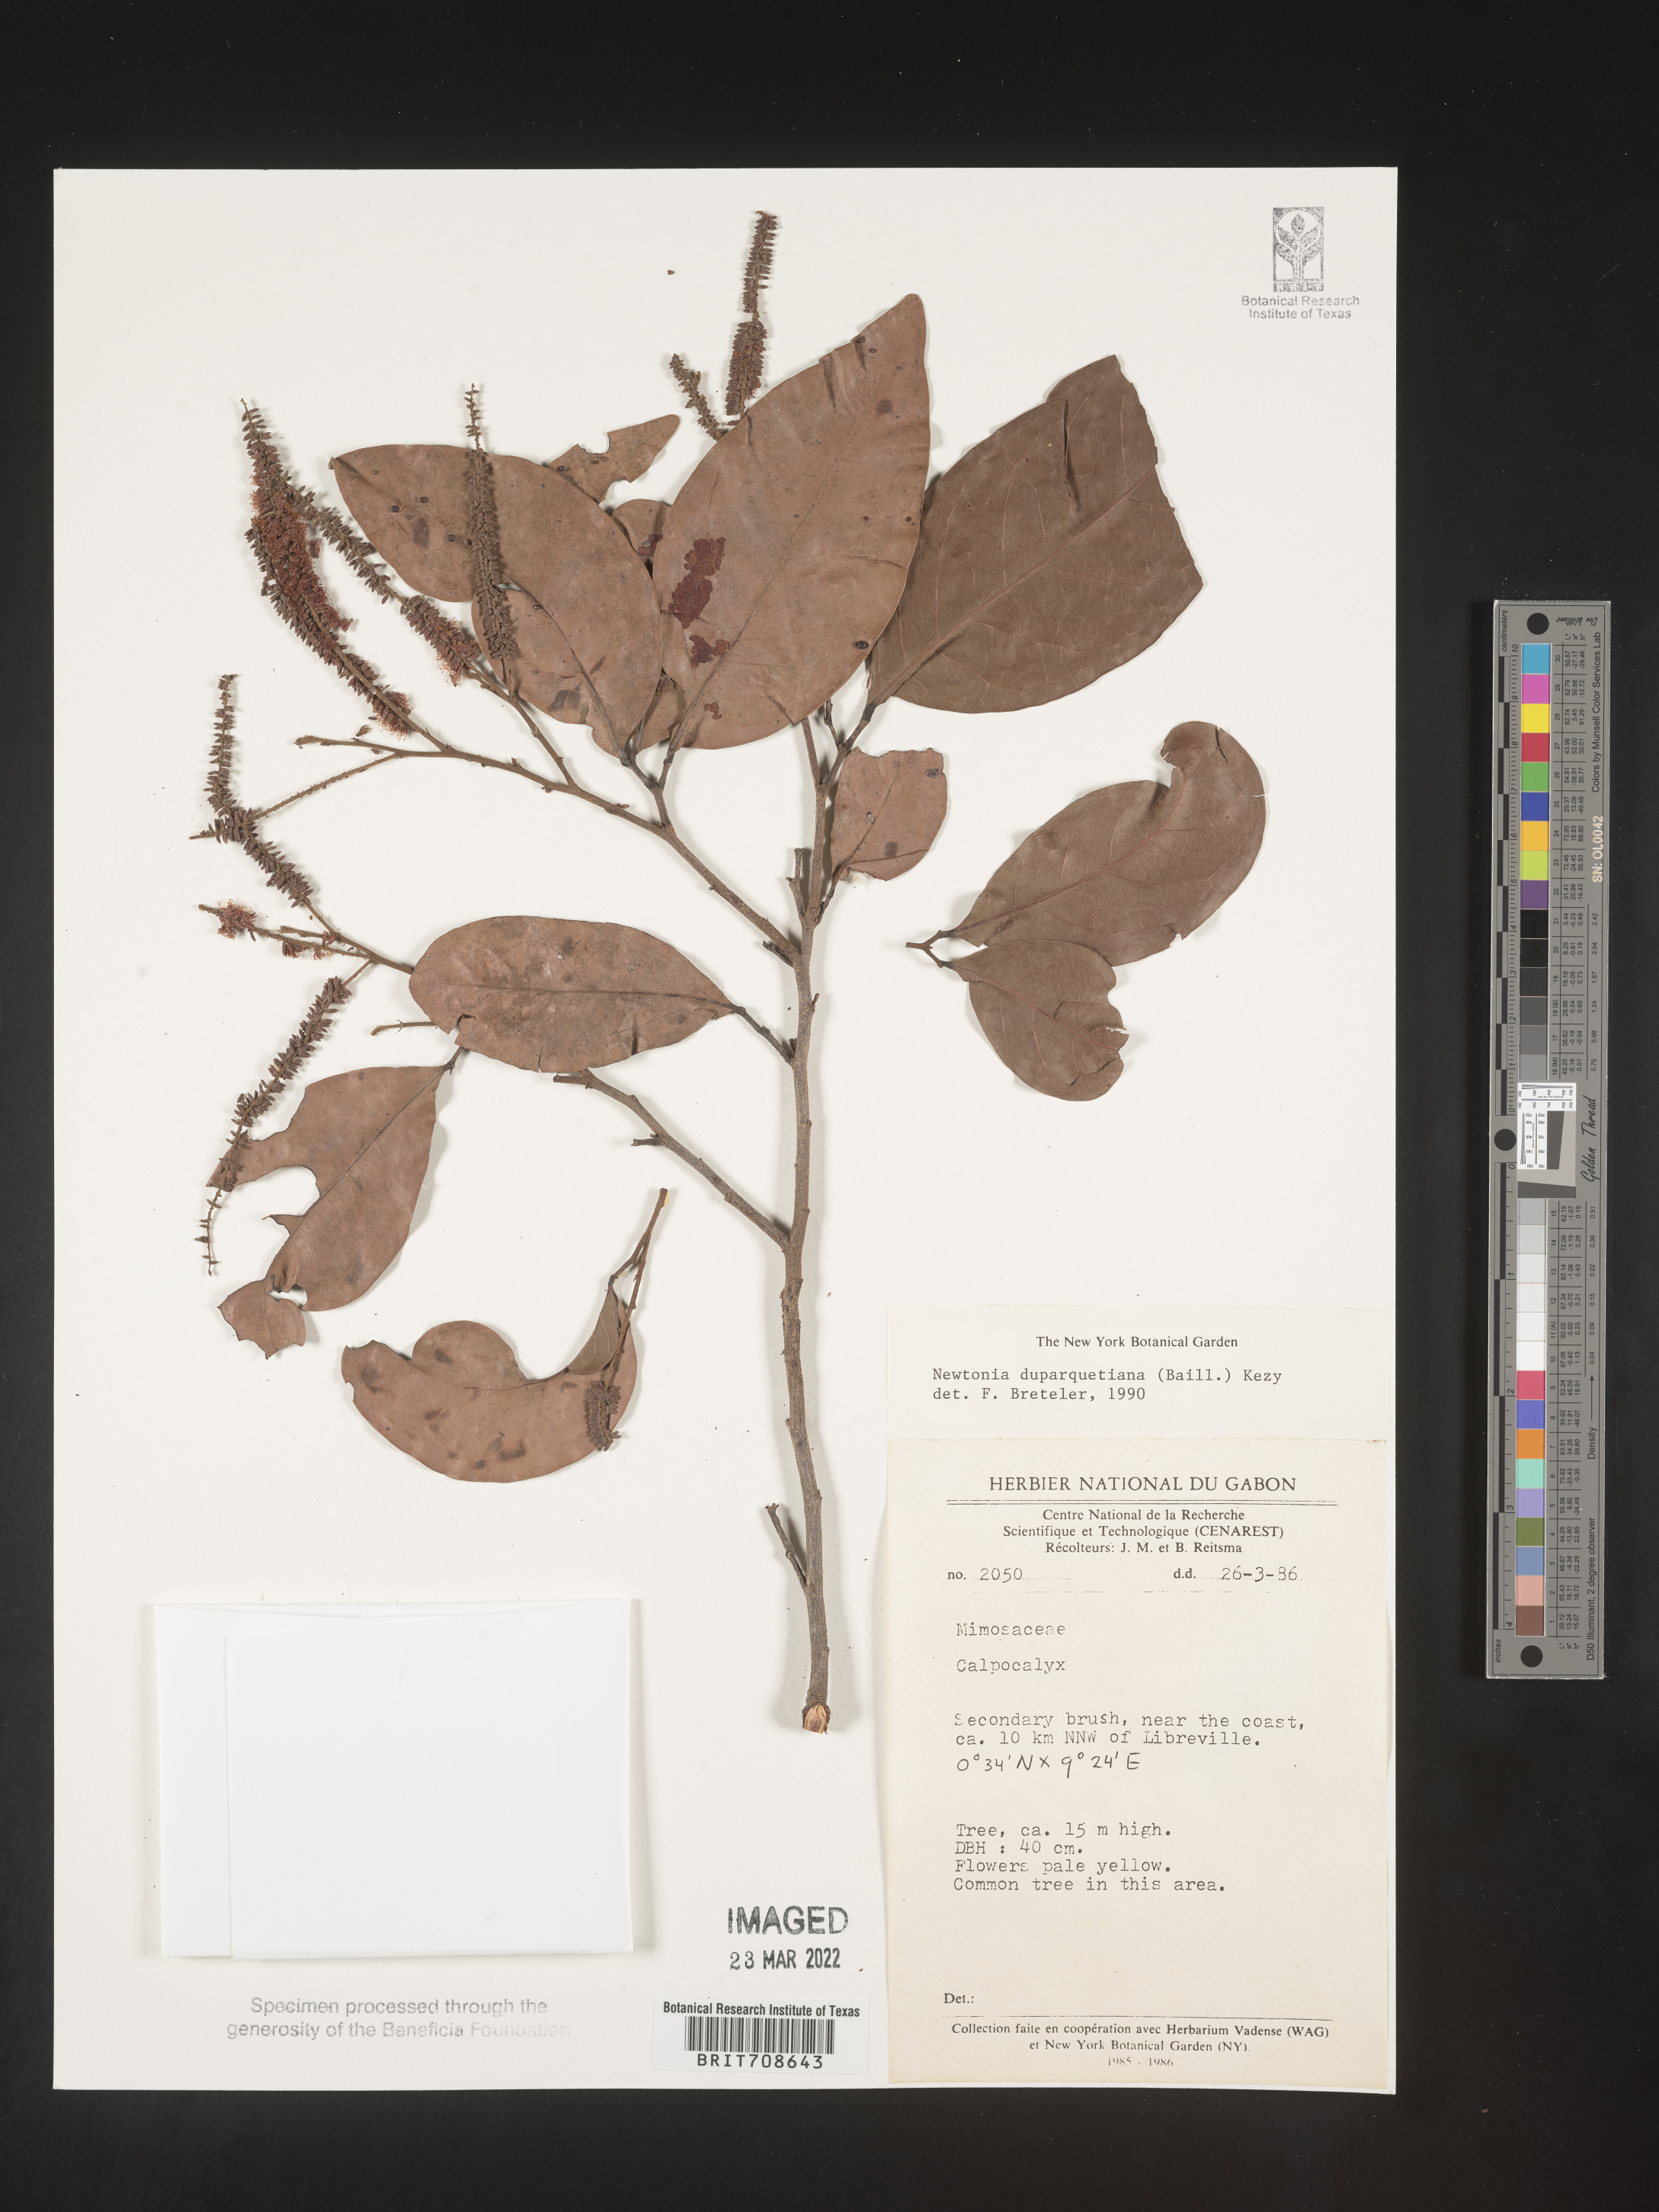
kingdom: Plantae
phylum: Tracheophyta
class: Magnoliopsida
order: Fabales
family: Fabaceae
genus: Newtonia
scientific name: Newtonia
